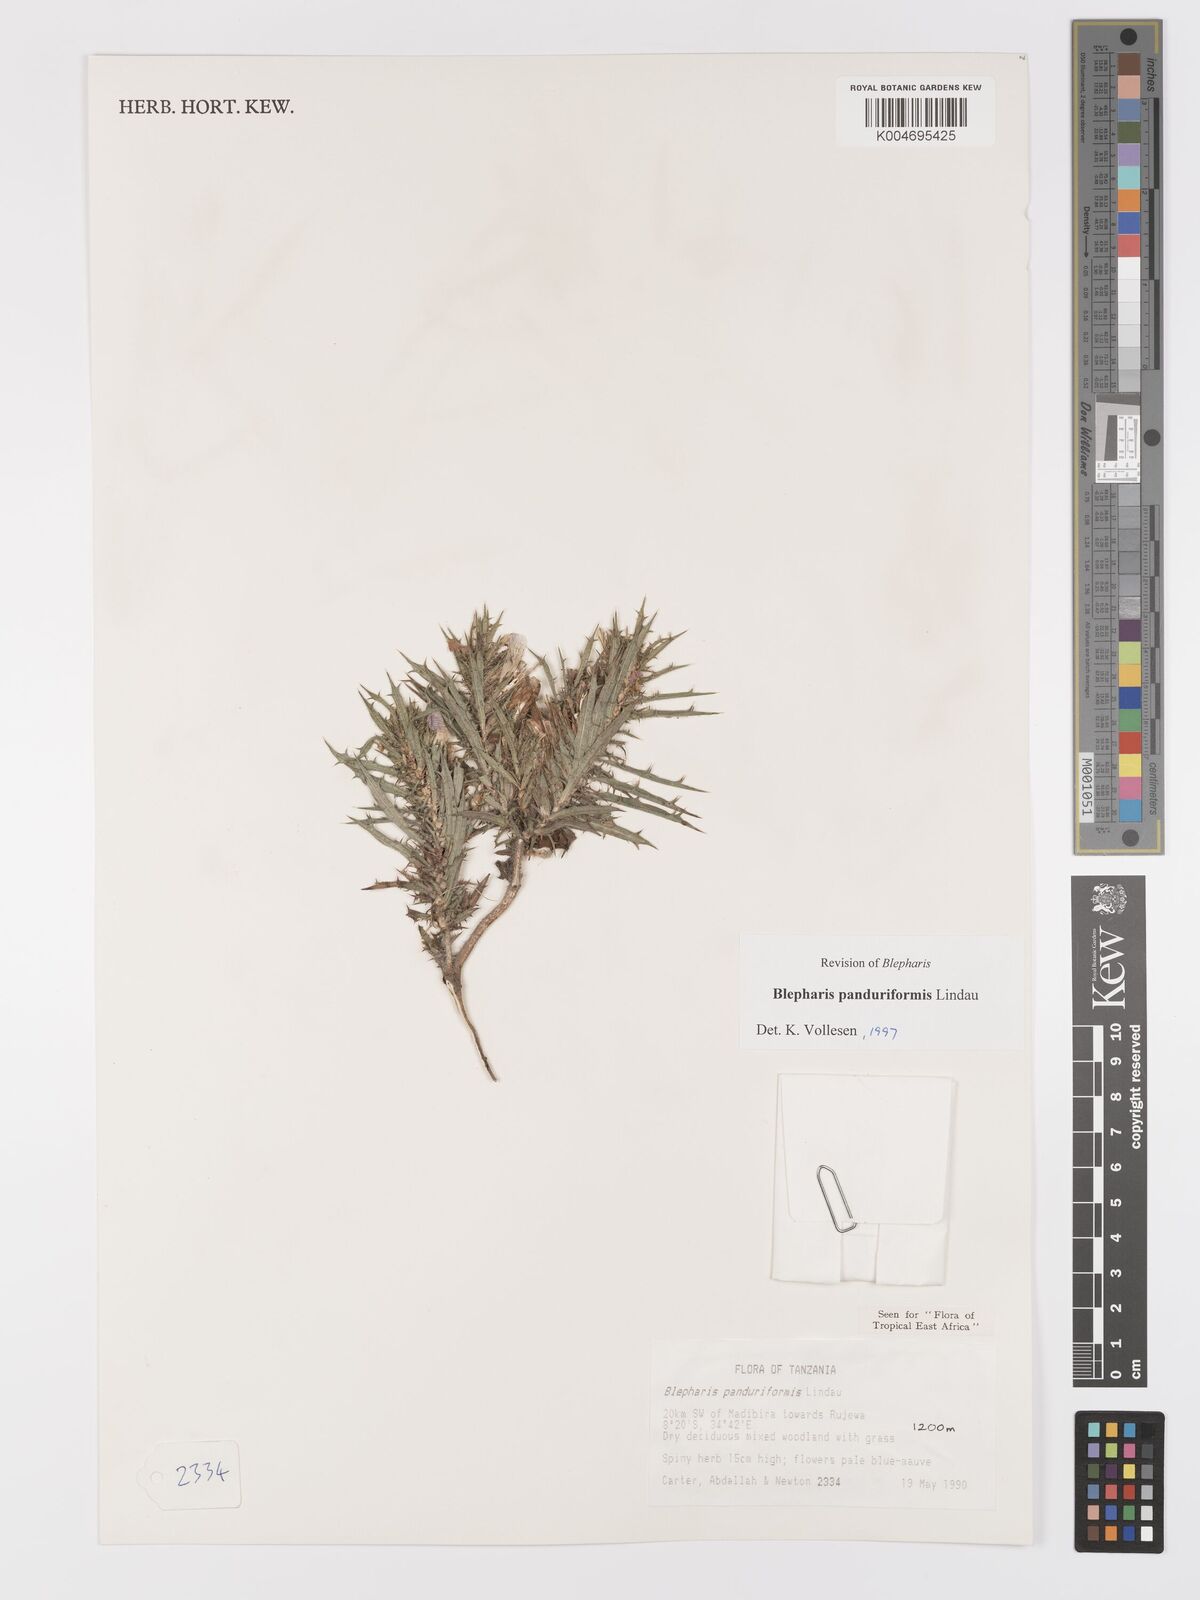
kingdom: Plantae
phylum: Tracheophyta
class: Magnoliopsida
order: Lamiales
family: Acanthaceae
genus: Blepharis
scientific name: Blepharis panduriformis
